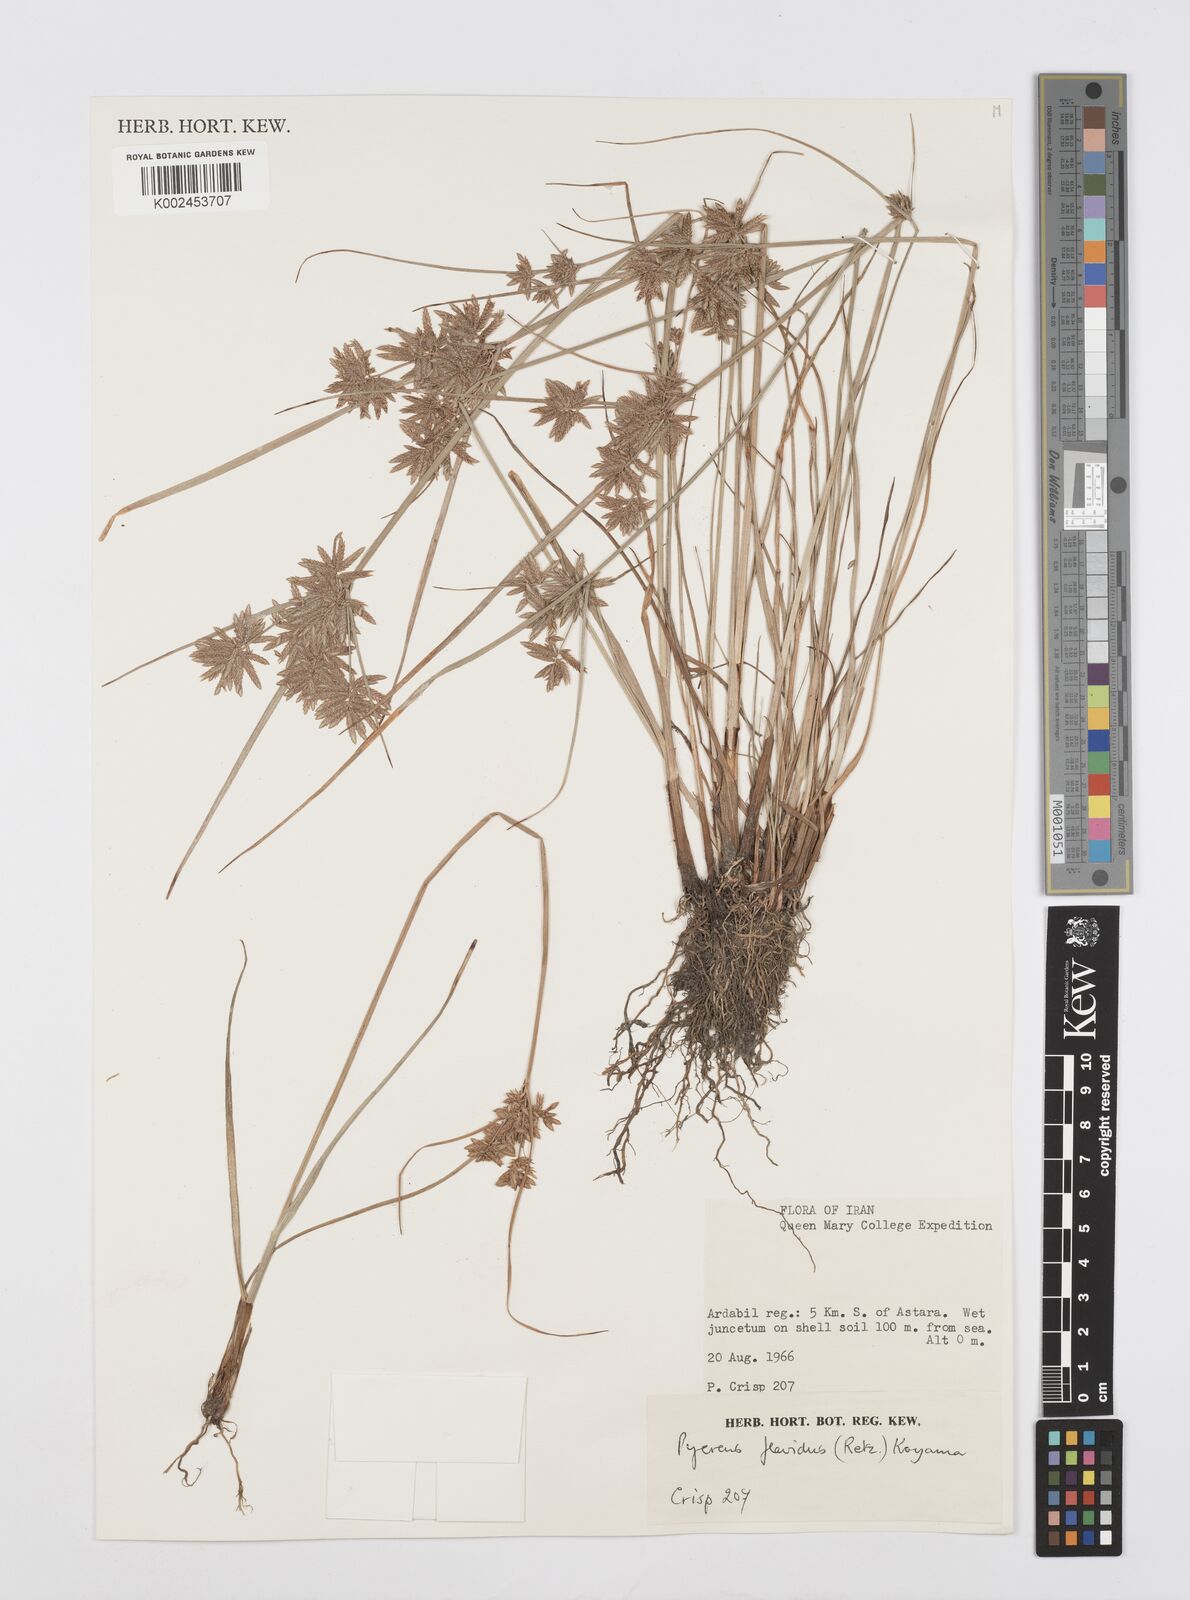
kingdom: Plantae
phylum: Tracheophyta
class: Liliopsida
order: Poales
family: Cyperaceae
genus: Cyperus
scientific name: Cyperus flavidus
